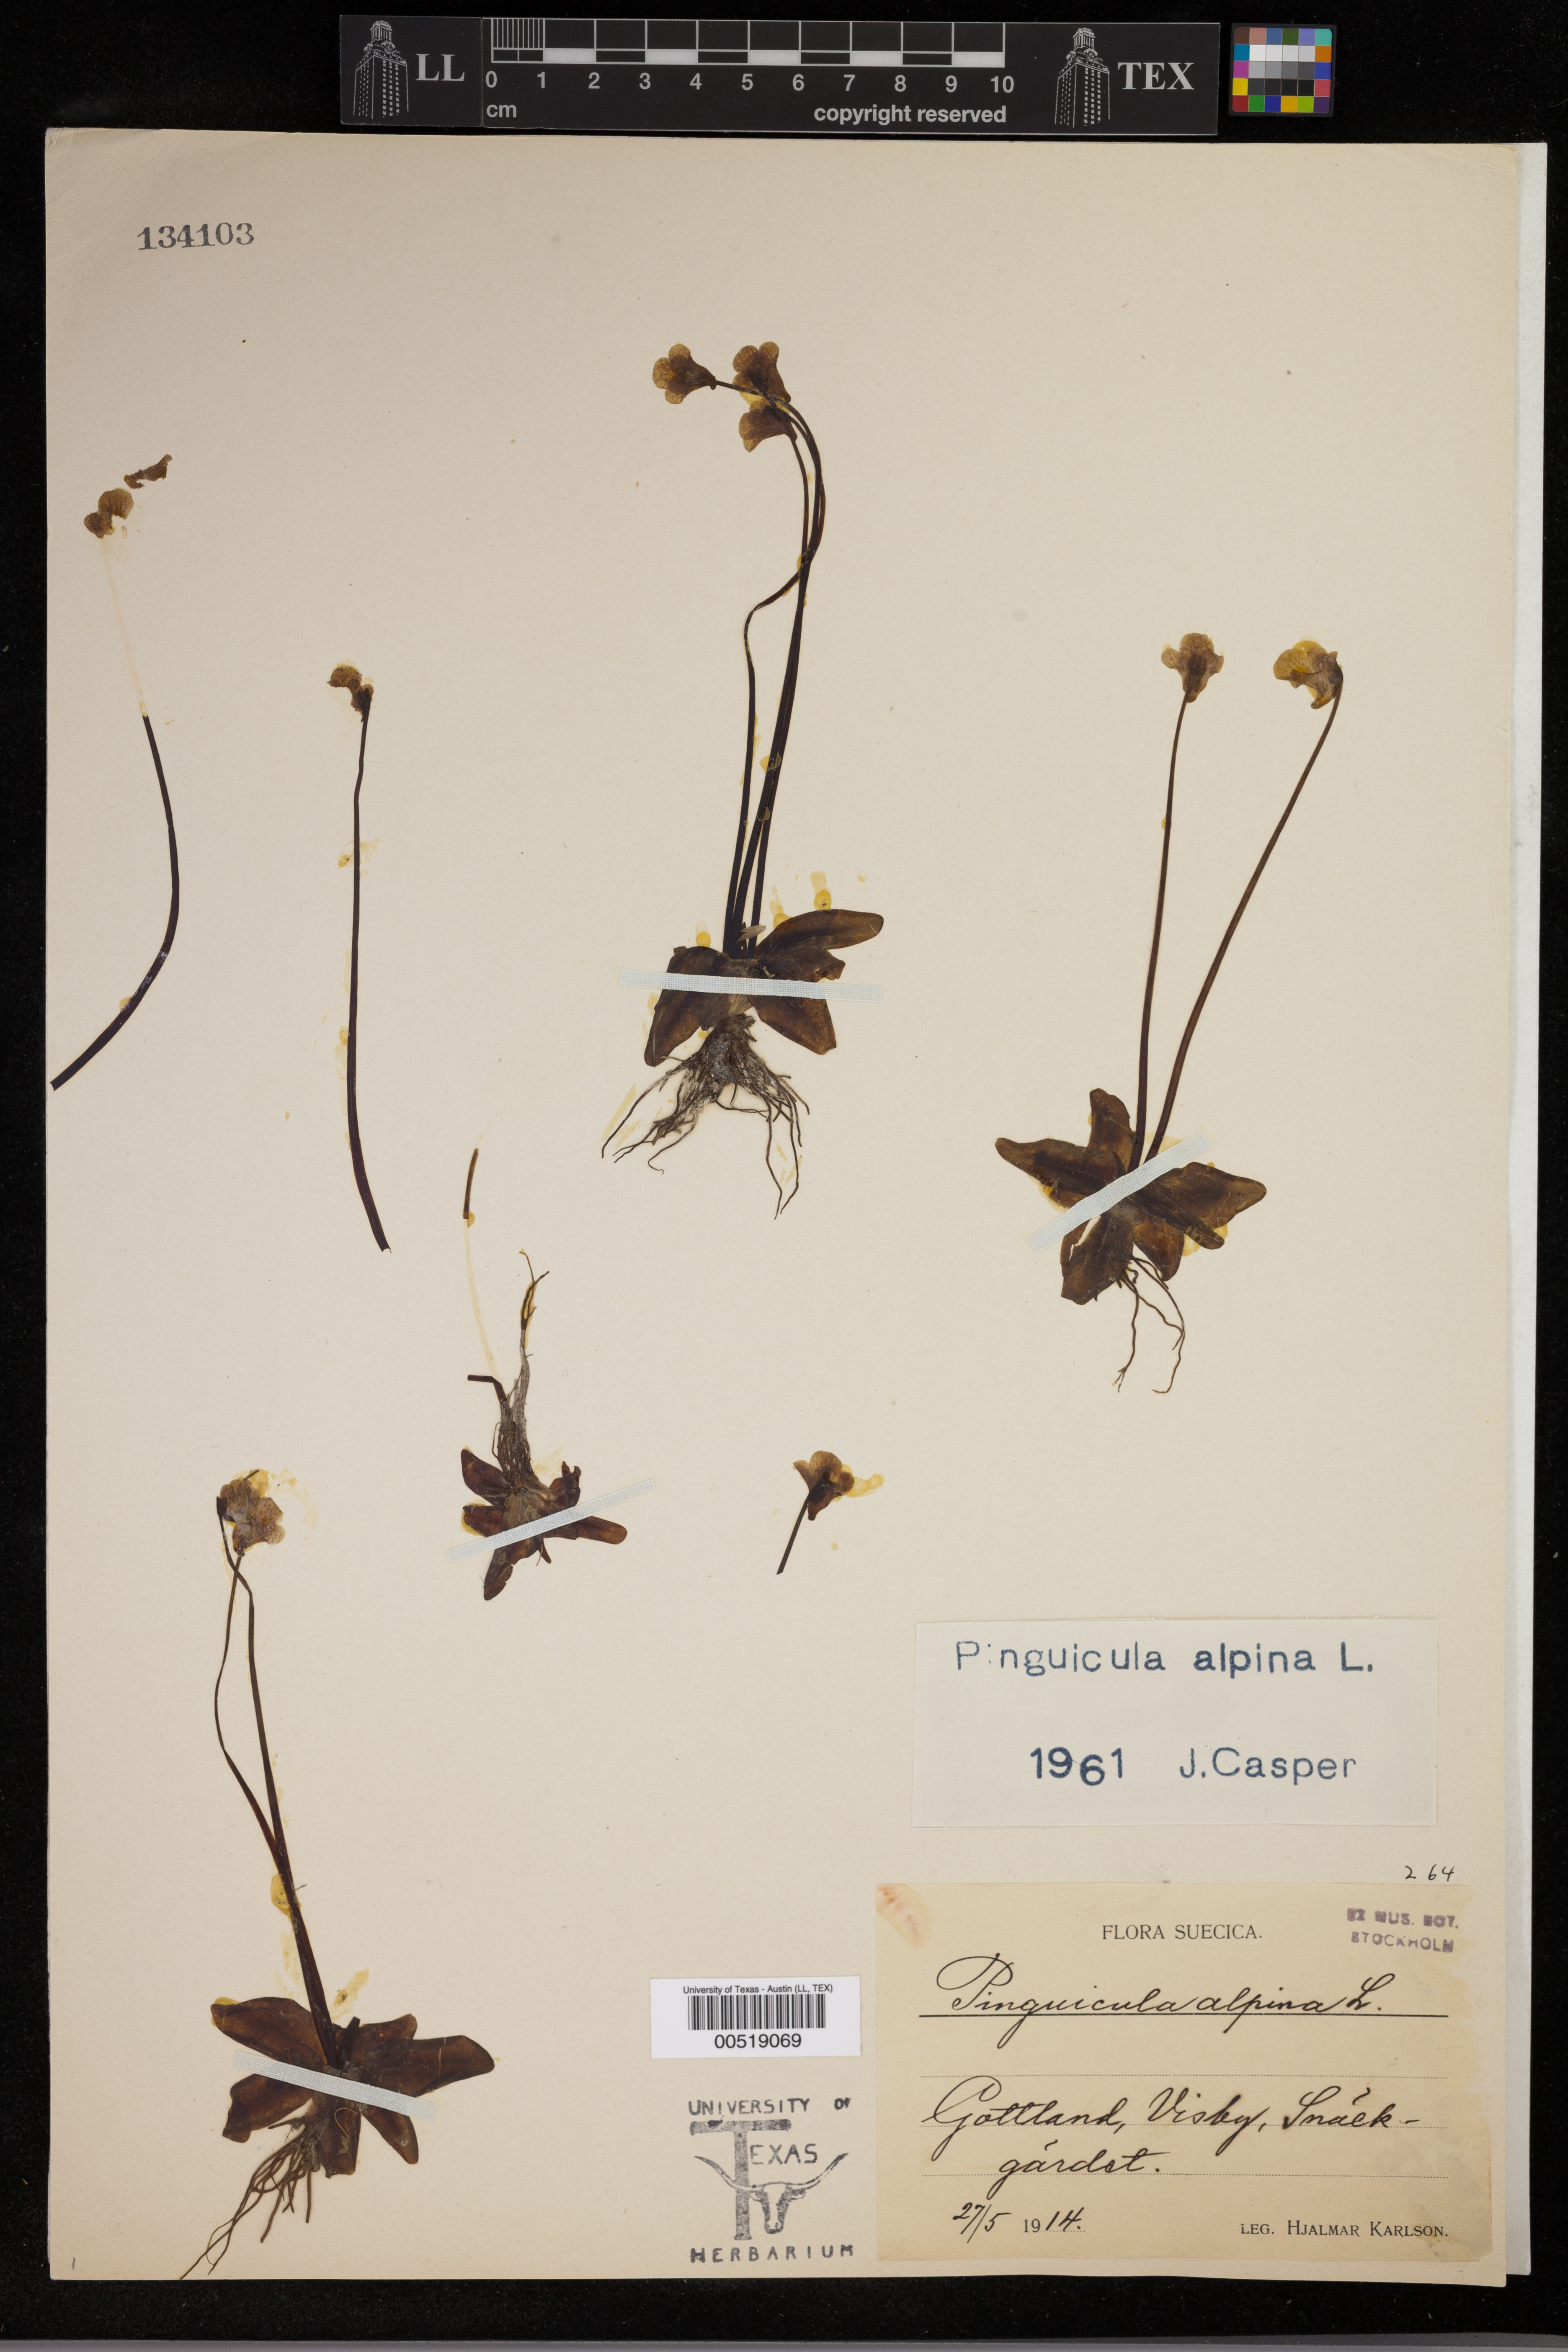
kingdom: Plantae
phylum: Tracheophyta
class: Magnoliopsida
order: Lamiales
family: Lentibulariaceae
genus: Pinguicula
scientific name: Pinguicula alpina
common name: Alpine butterwort
